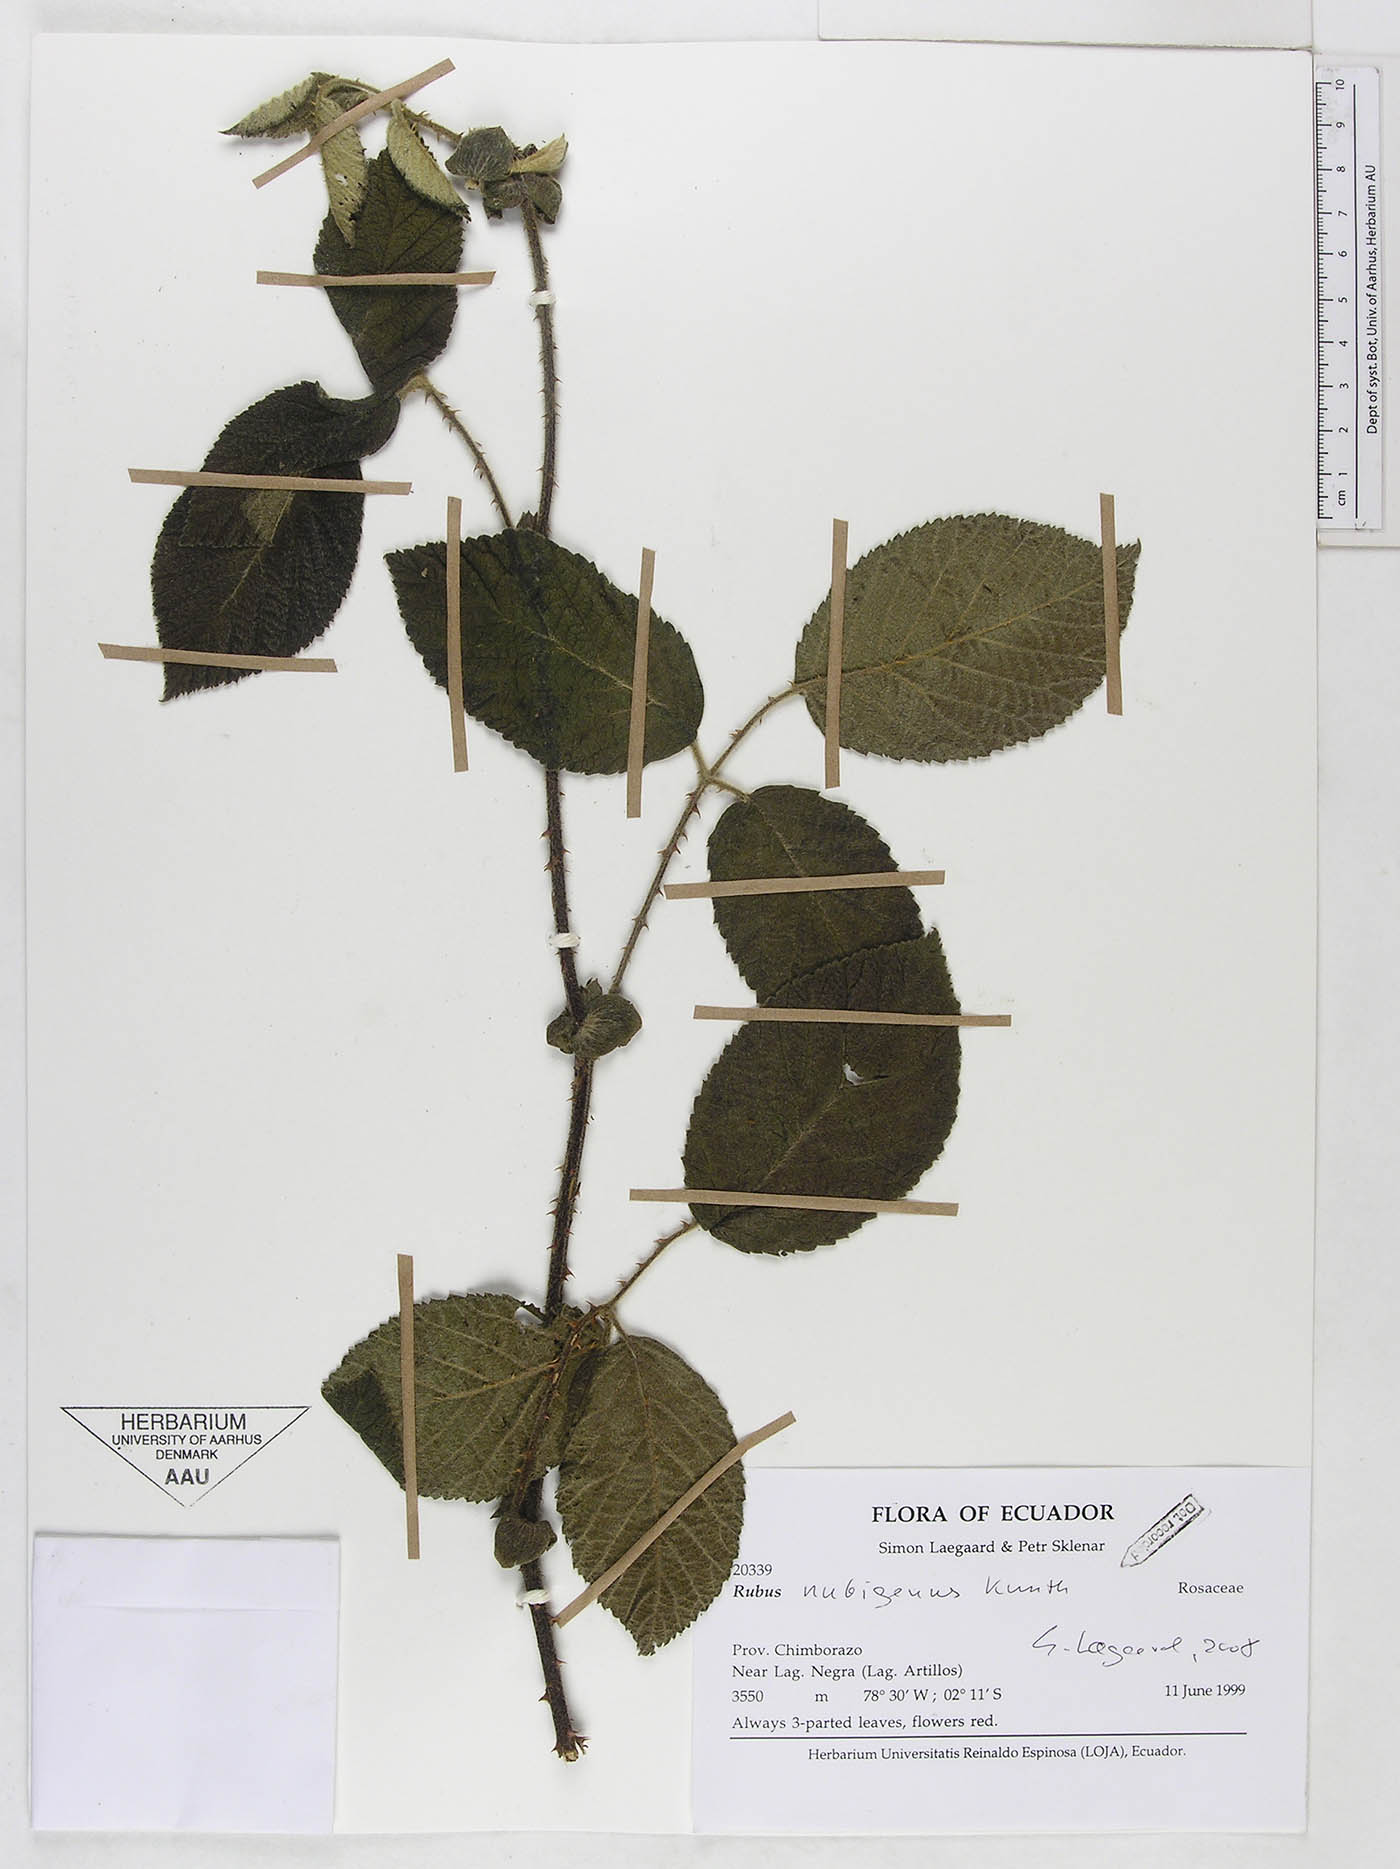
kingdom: Plantae
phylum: Tracheophyta
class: Magnoliopsida
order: Rosales
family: Rosaceae
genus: Rubus
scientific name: Rubus nubigenus
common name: Giant colombian blackberry
